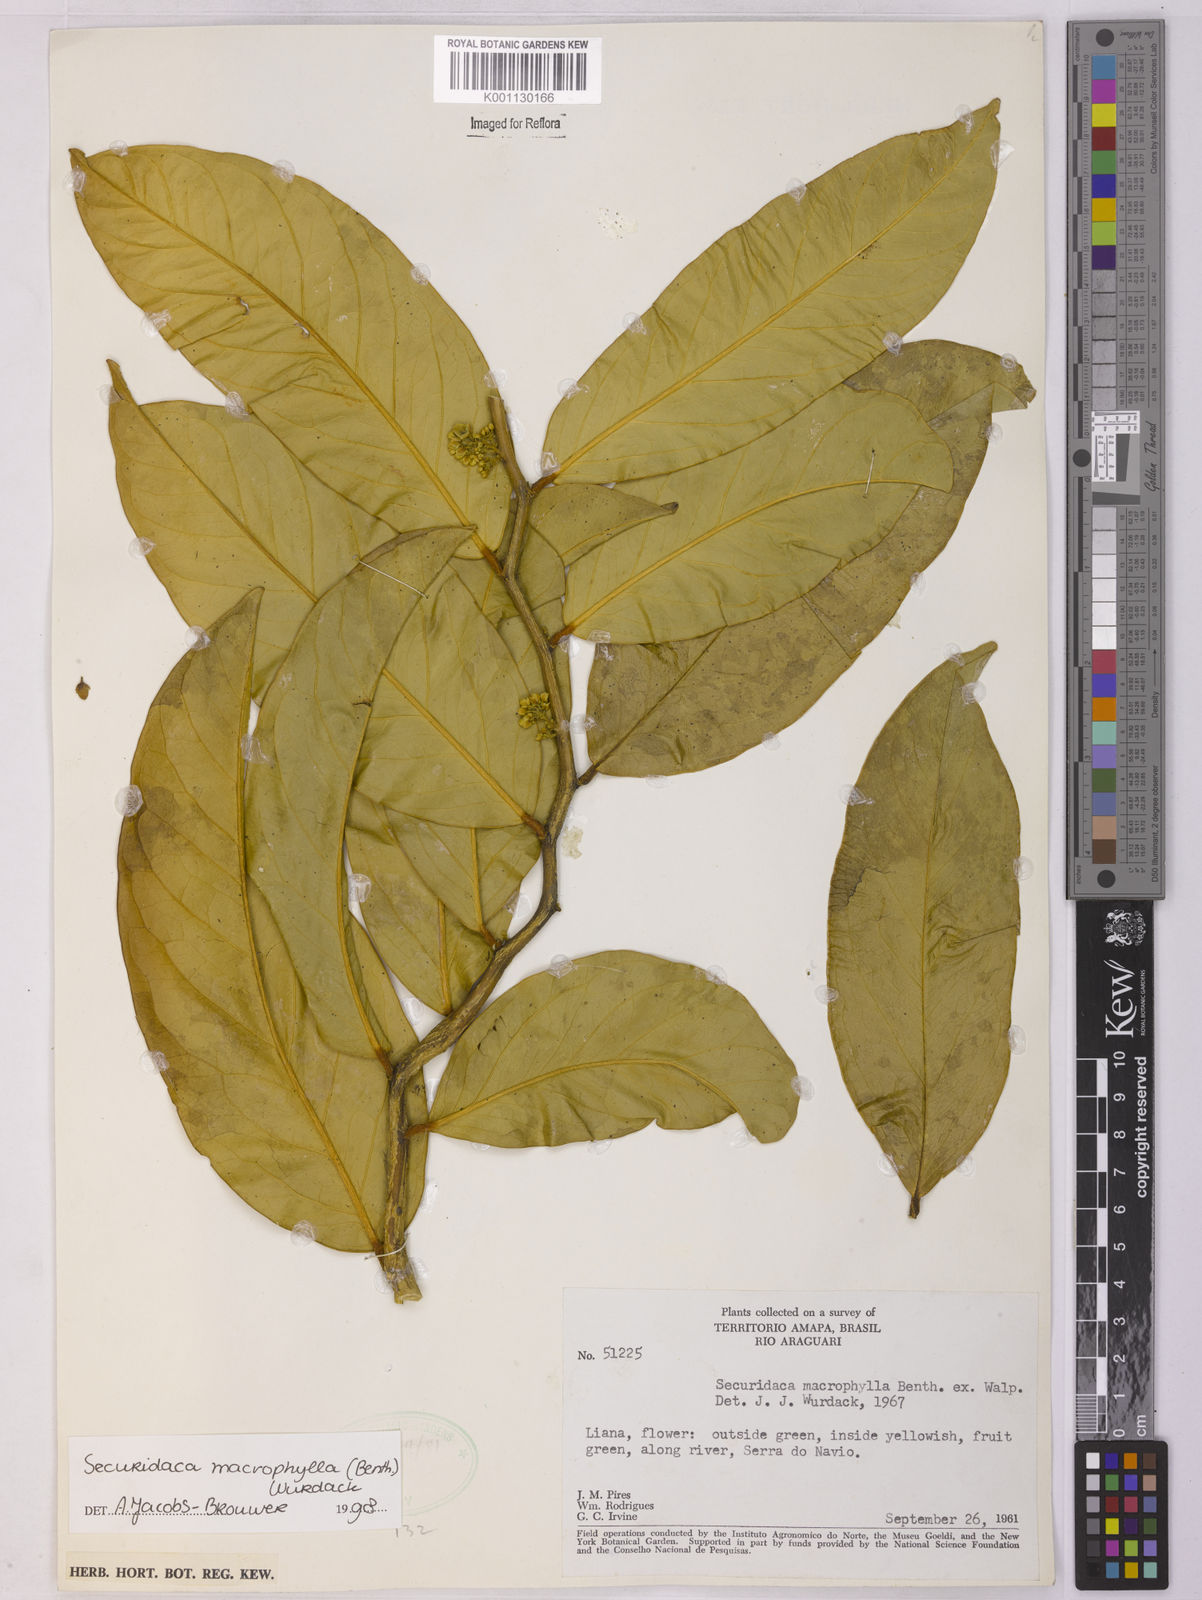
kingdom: Plantae
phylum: Tracheophyta
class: Magnoliopsida
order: Fabales
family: Polygalaceae
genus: Securidaca
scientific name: Securidaca calophylla
